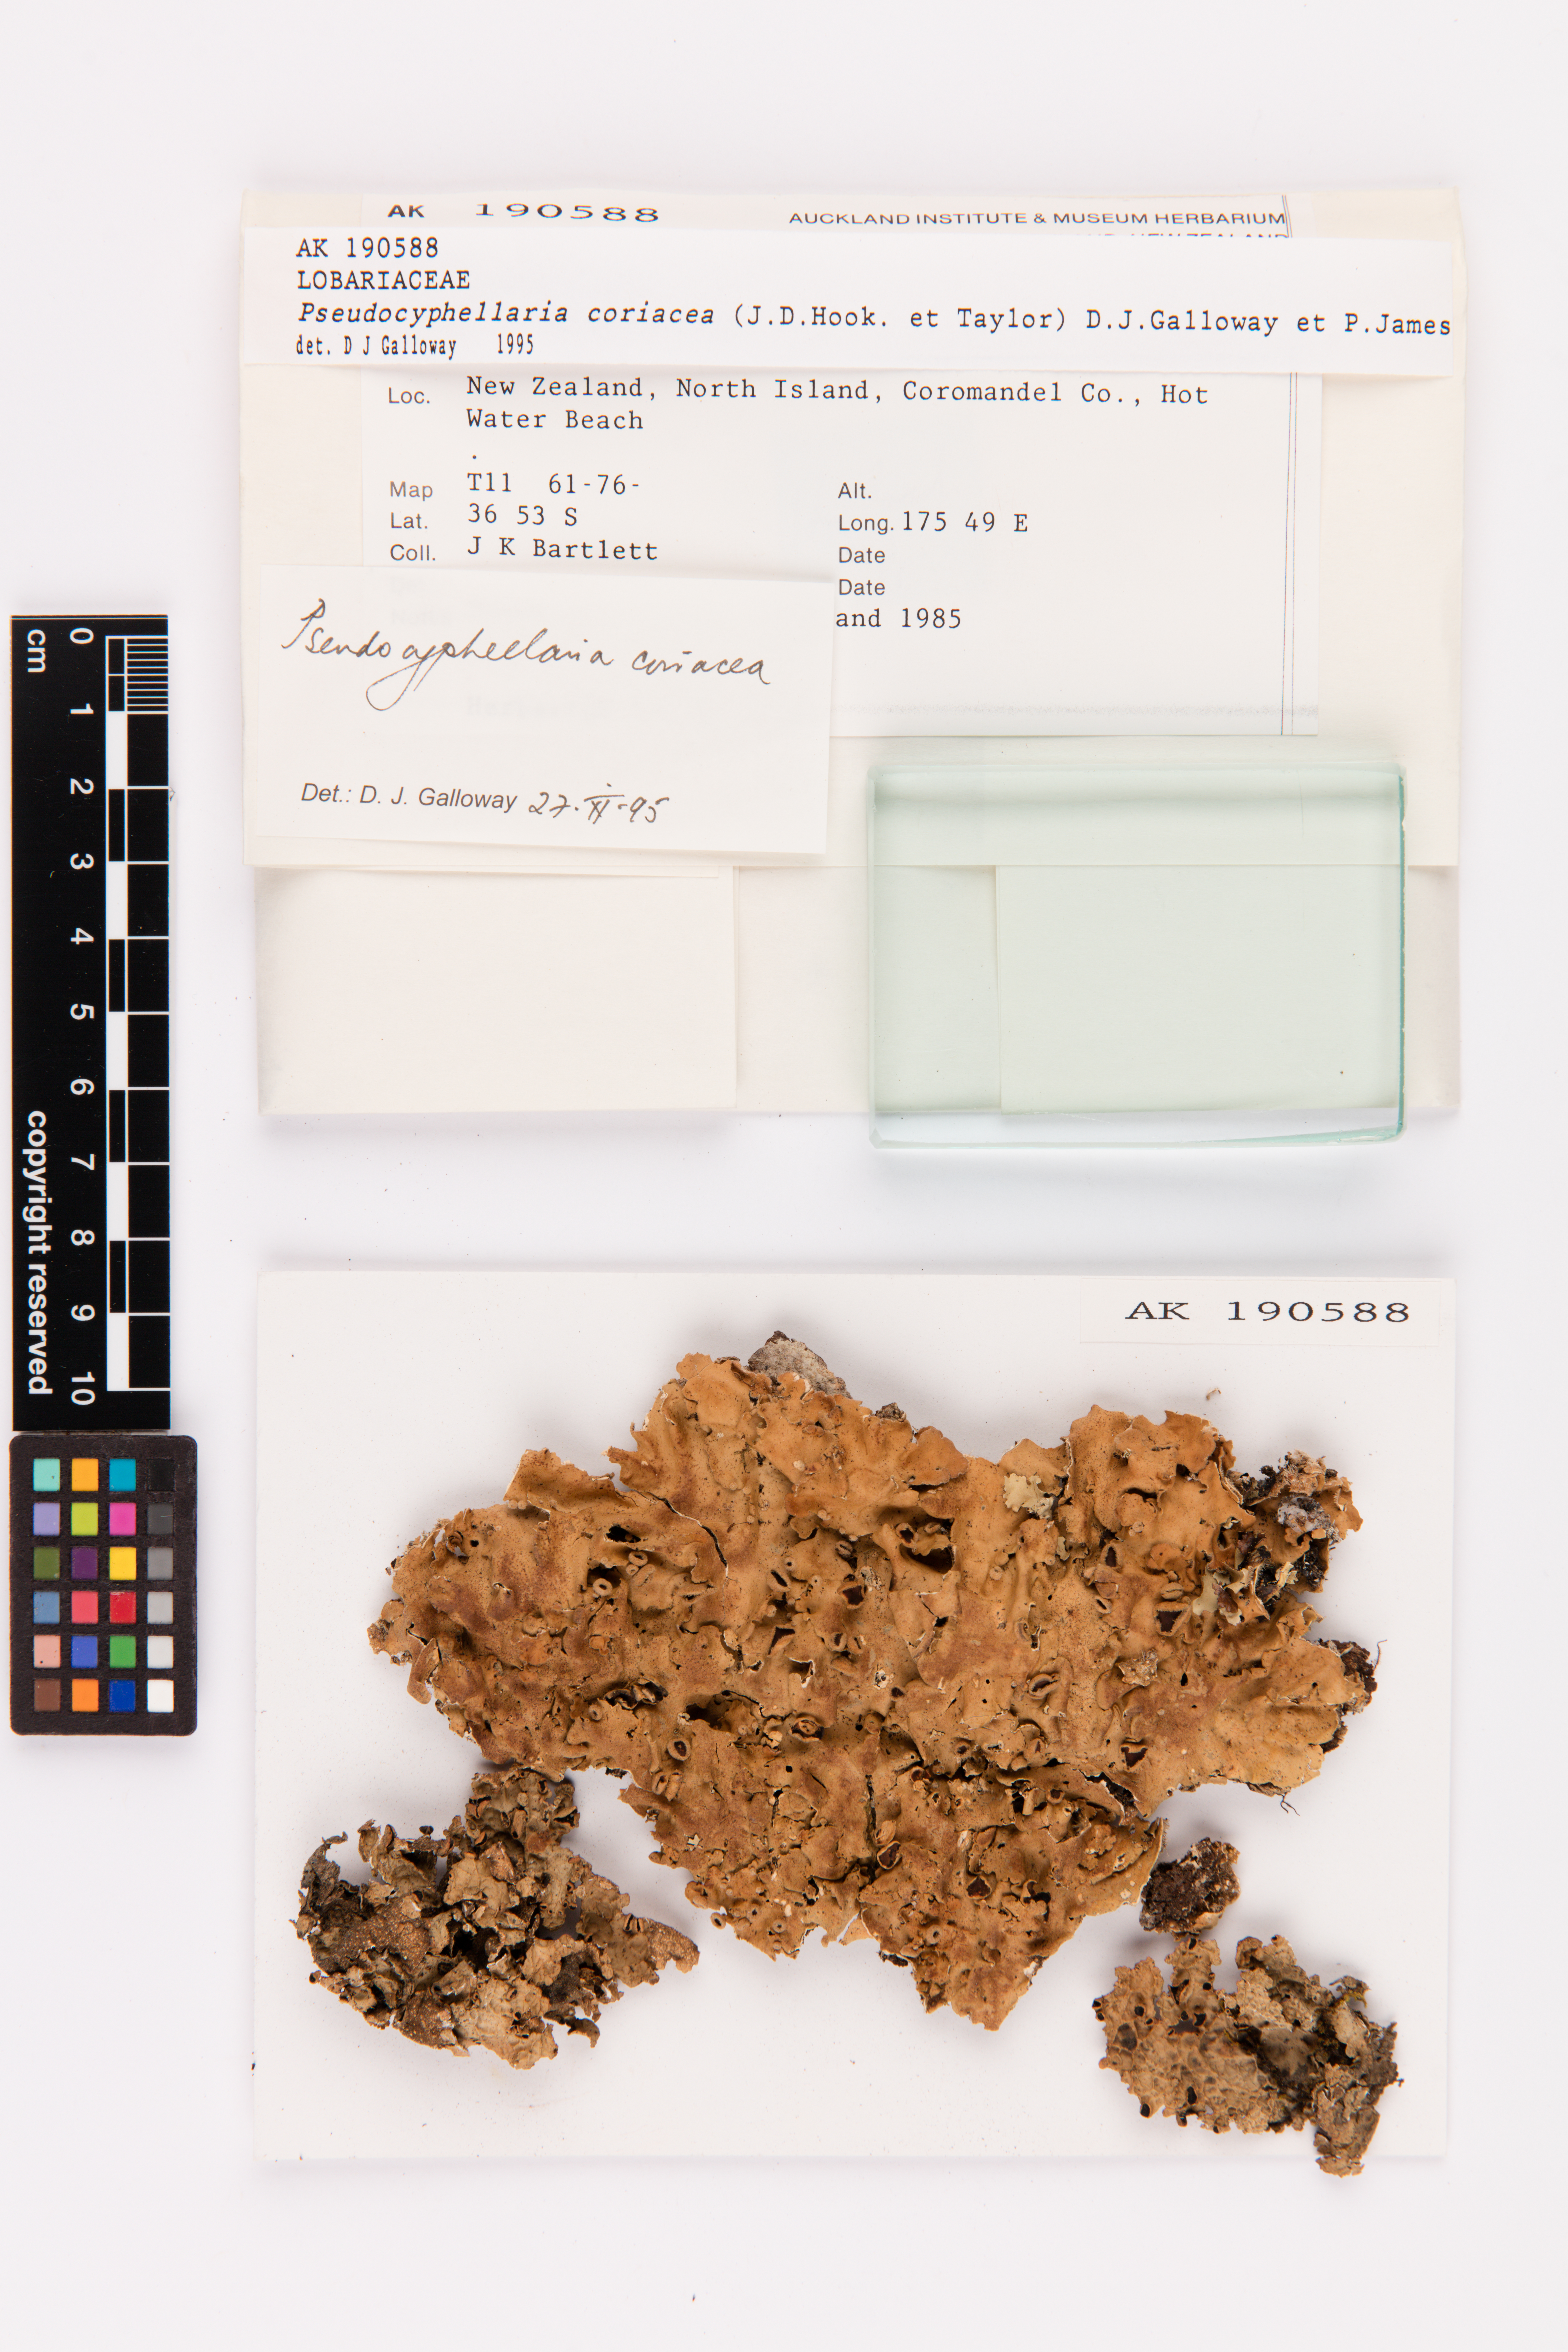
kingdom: Fungi
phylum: Ascomycota
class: Lecanoromycetes
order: Peltigerales
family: Lobariaceae
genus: Pseudocyphellaria
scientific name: Pseudocyphellaria coriacea
